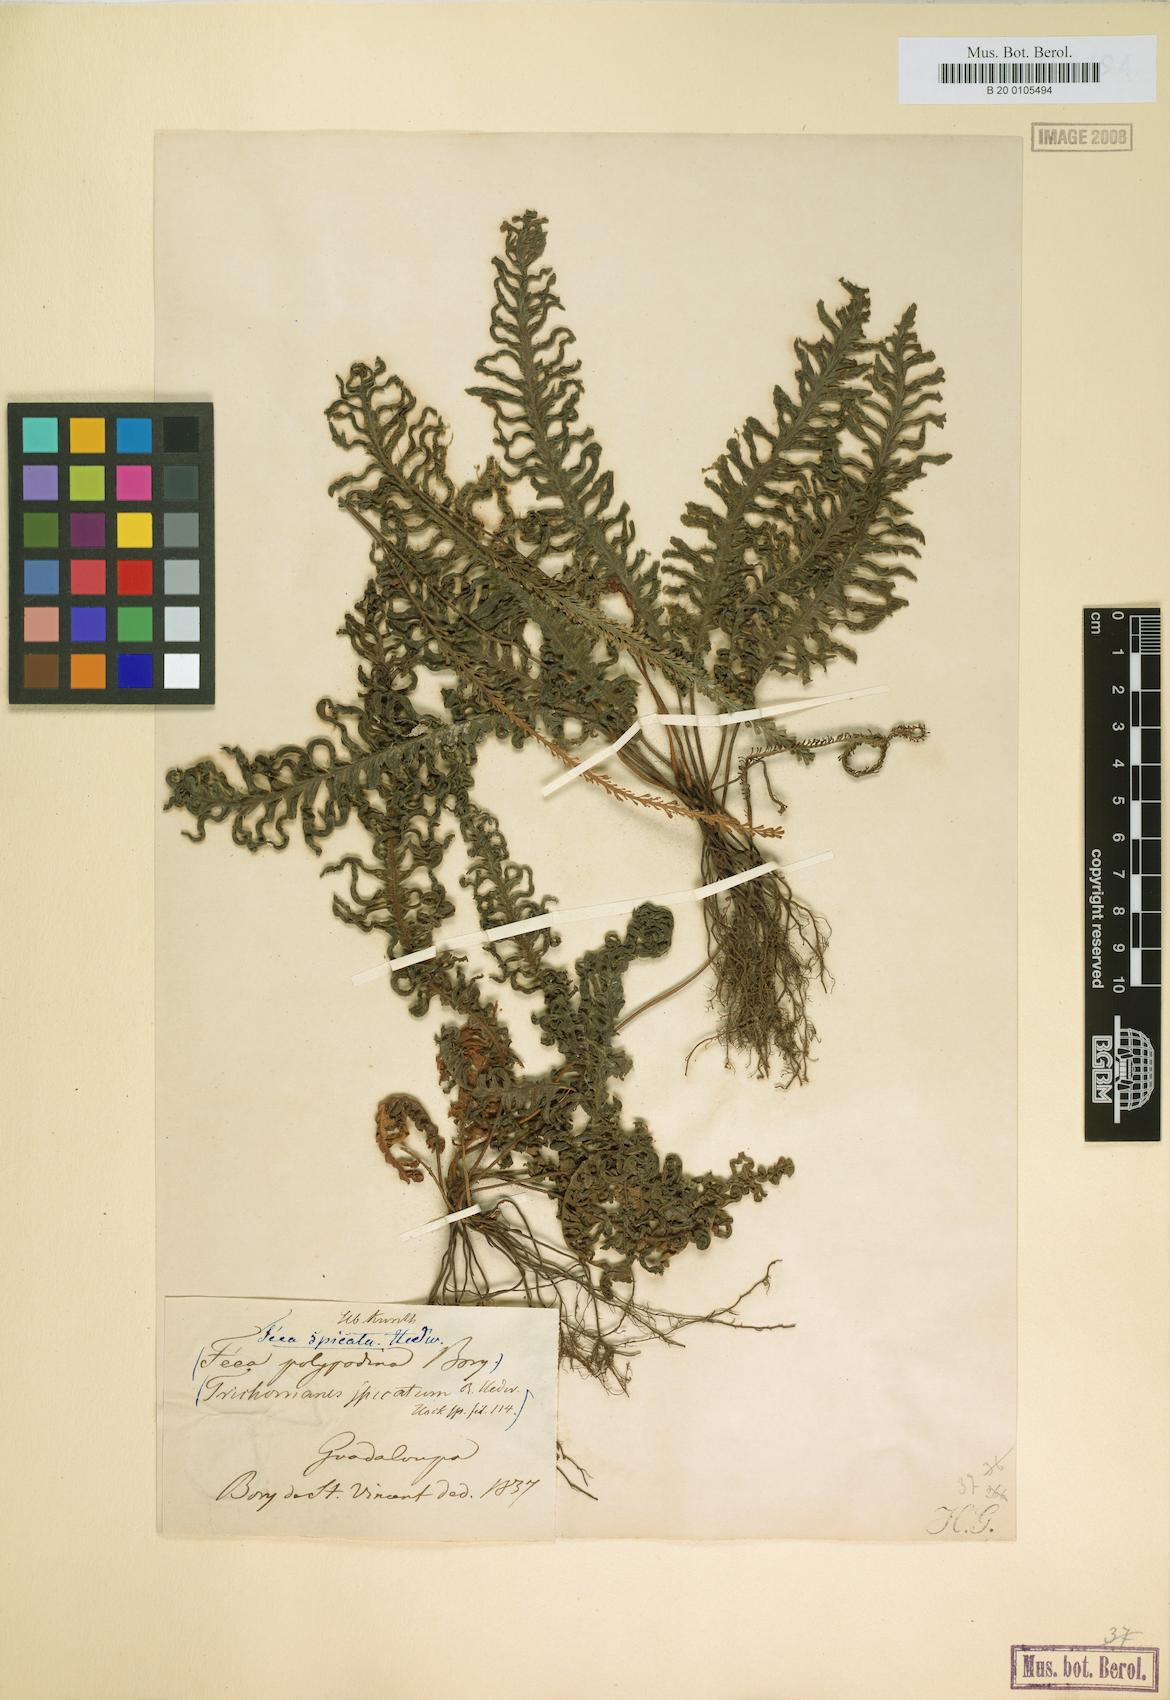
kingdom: Plantae
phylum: Tracheophyta
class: Polypodiopsida
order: Hymenophyllales
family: Hymenophyllaceae
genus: Trichomanes
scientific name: Trichomanes osmundoides
